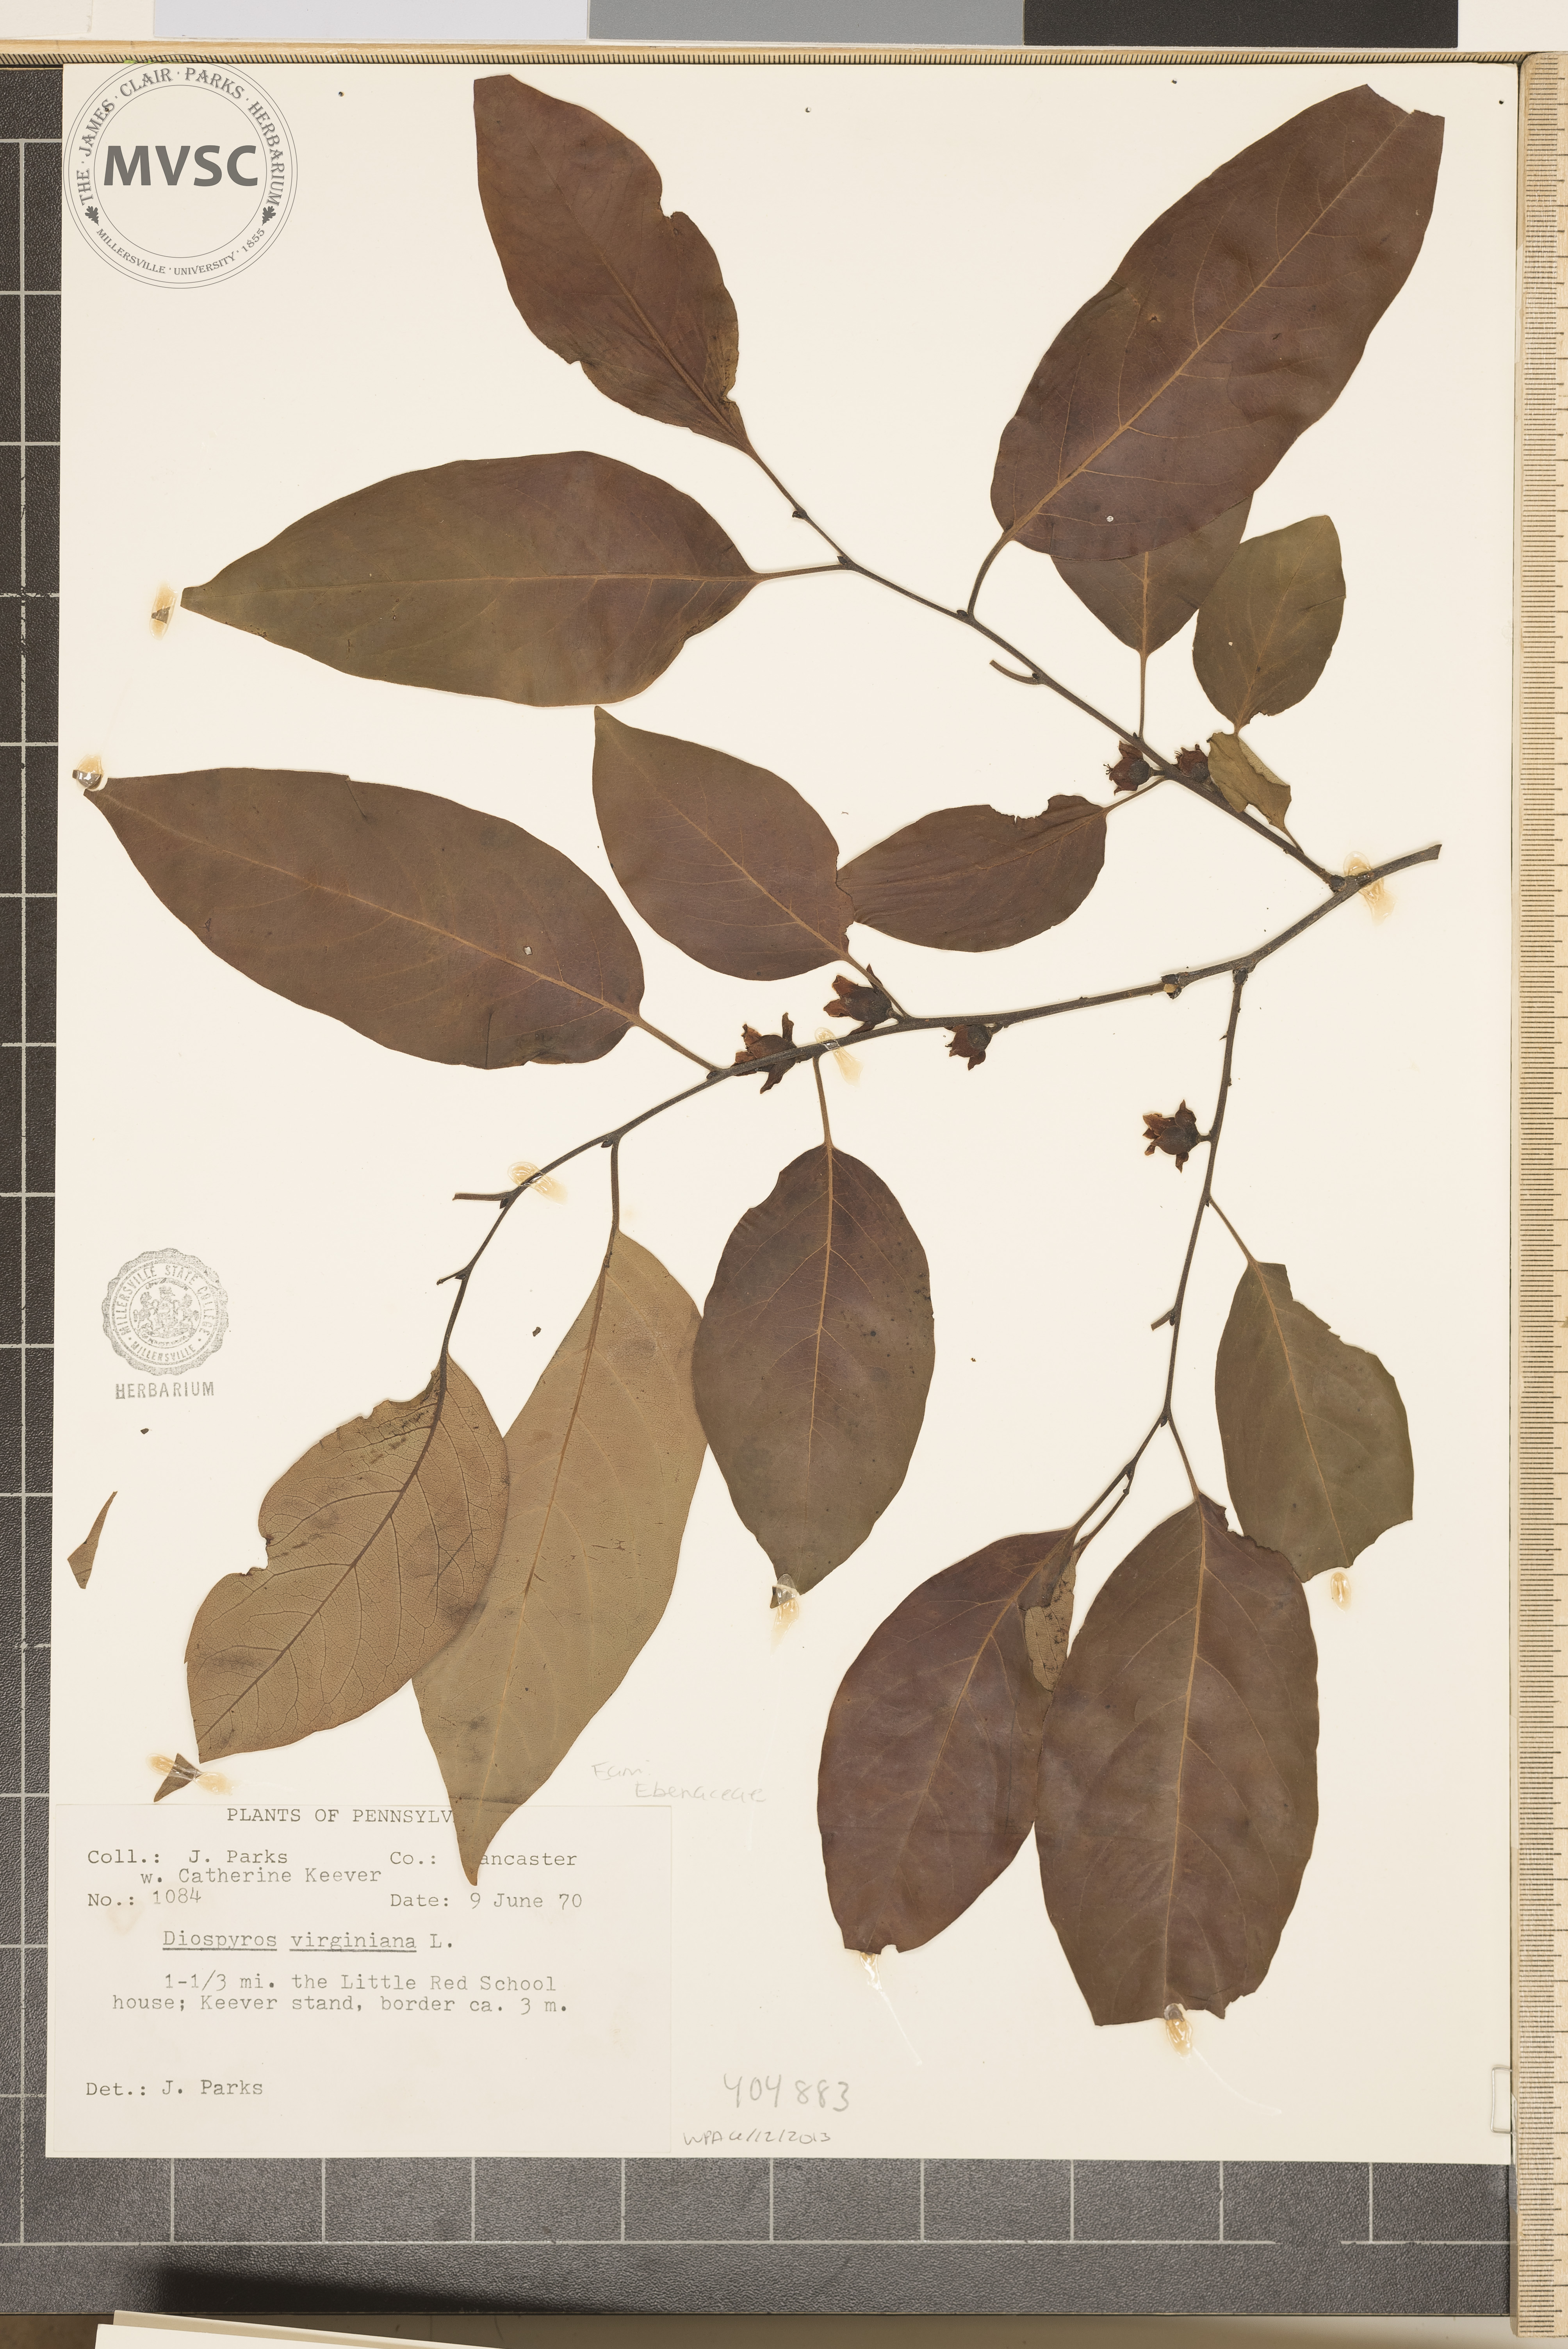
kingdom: Plantae
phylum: Tracheophyta
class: Magnoliopsida
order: Ericales
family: Ebenaceae
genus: Diospyros
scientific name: Diospyros virginiana
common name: Persimmon
